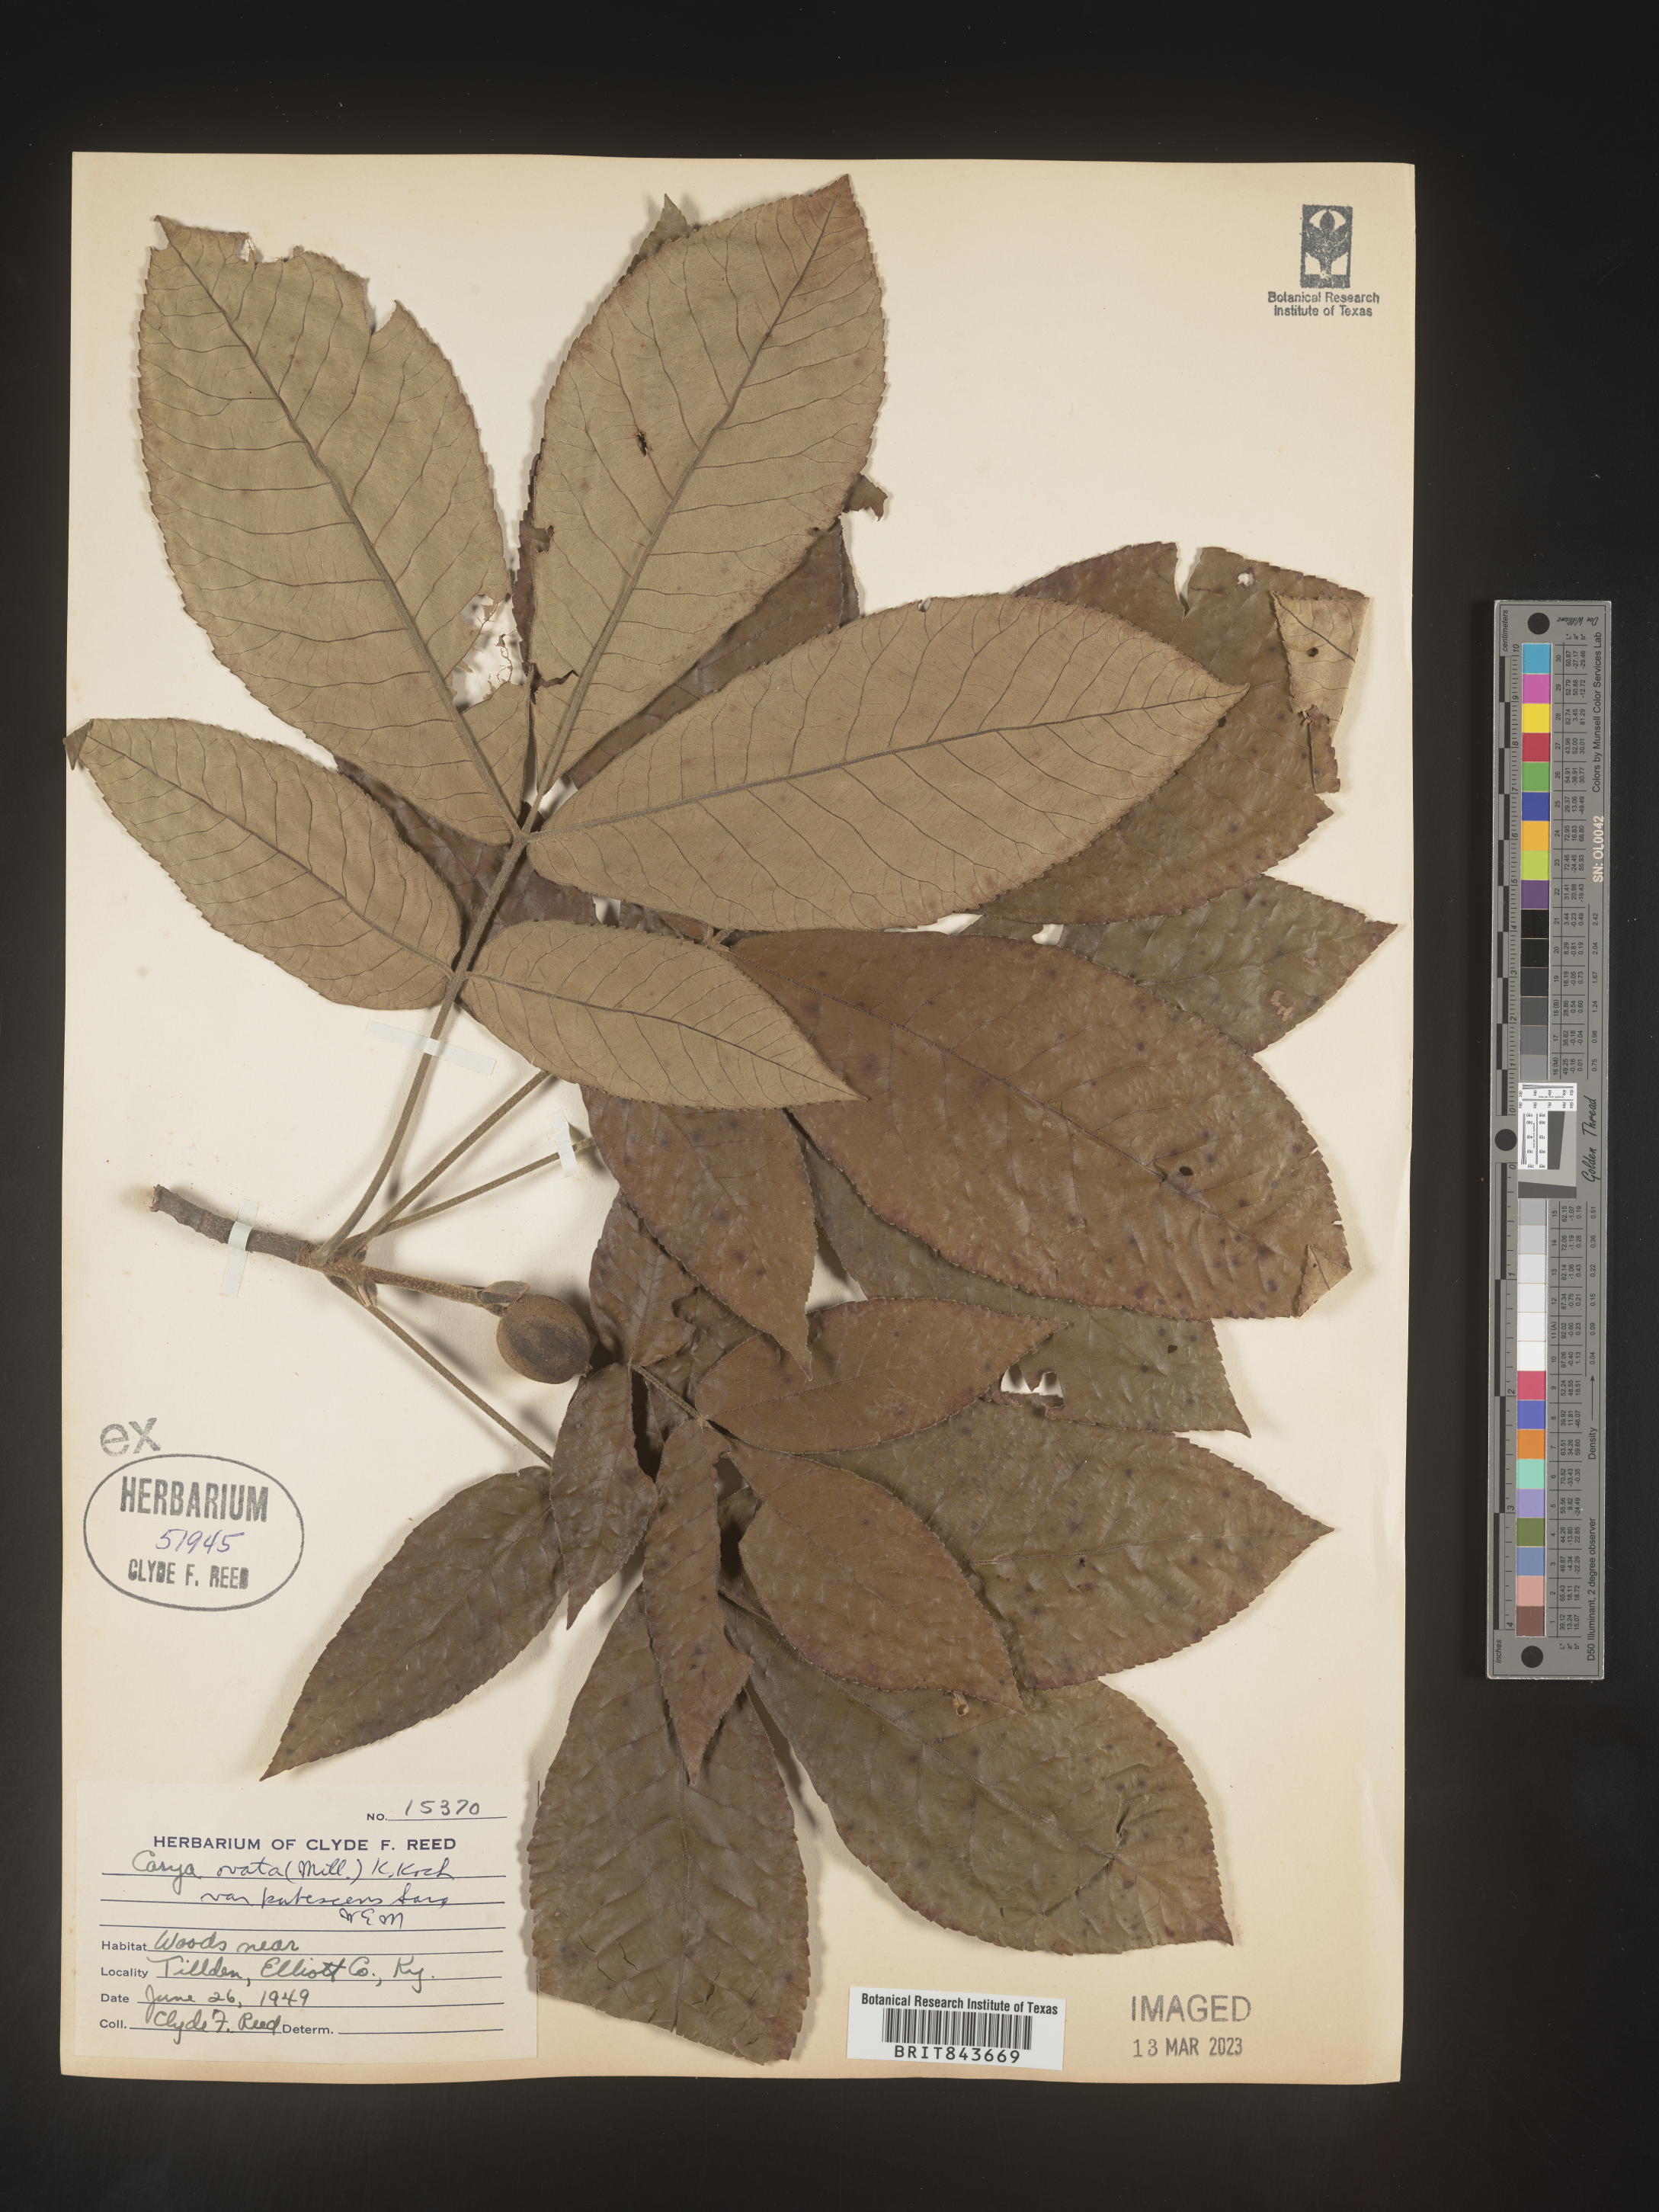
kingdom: Plantae
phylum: Tracheophyta
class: Magnoliopsida
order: Fagales
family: Juglandaceae
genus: Carya
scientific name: Carya ovata
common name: Shagbark hickory
